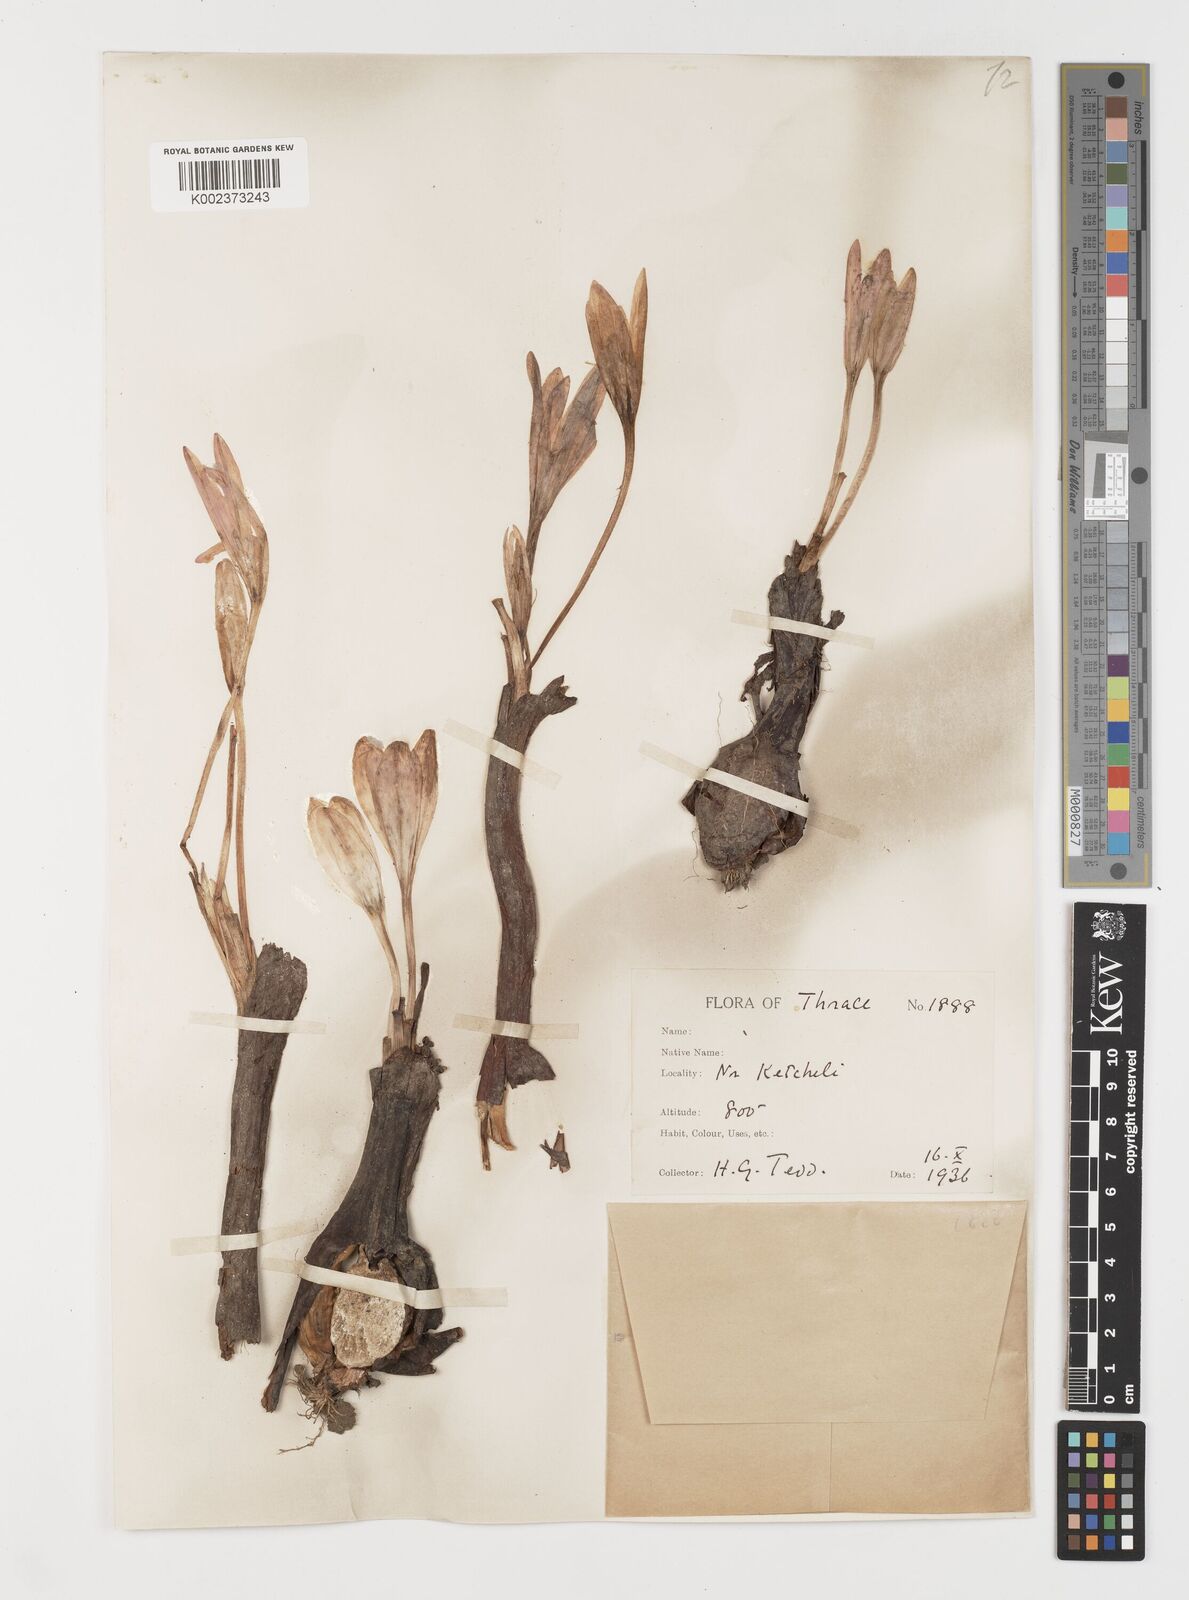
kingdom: Plantae
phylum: Tracheophyta
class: Liliopsida
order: Liliales
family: Colchicaceae
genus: Colchicum
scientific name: Colchicum autumnale
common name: Autumn crocus
